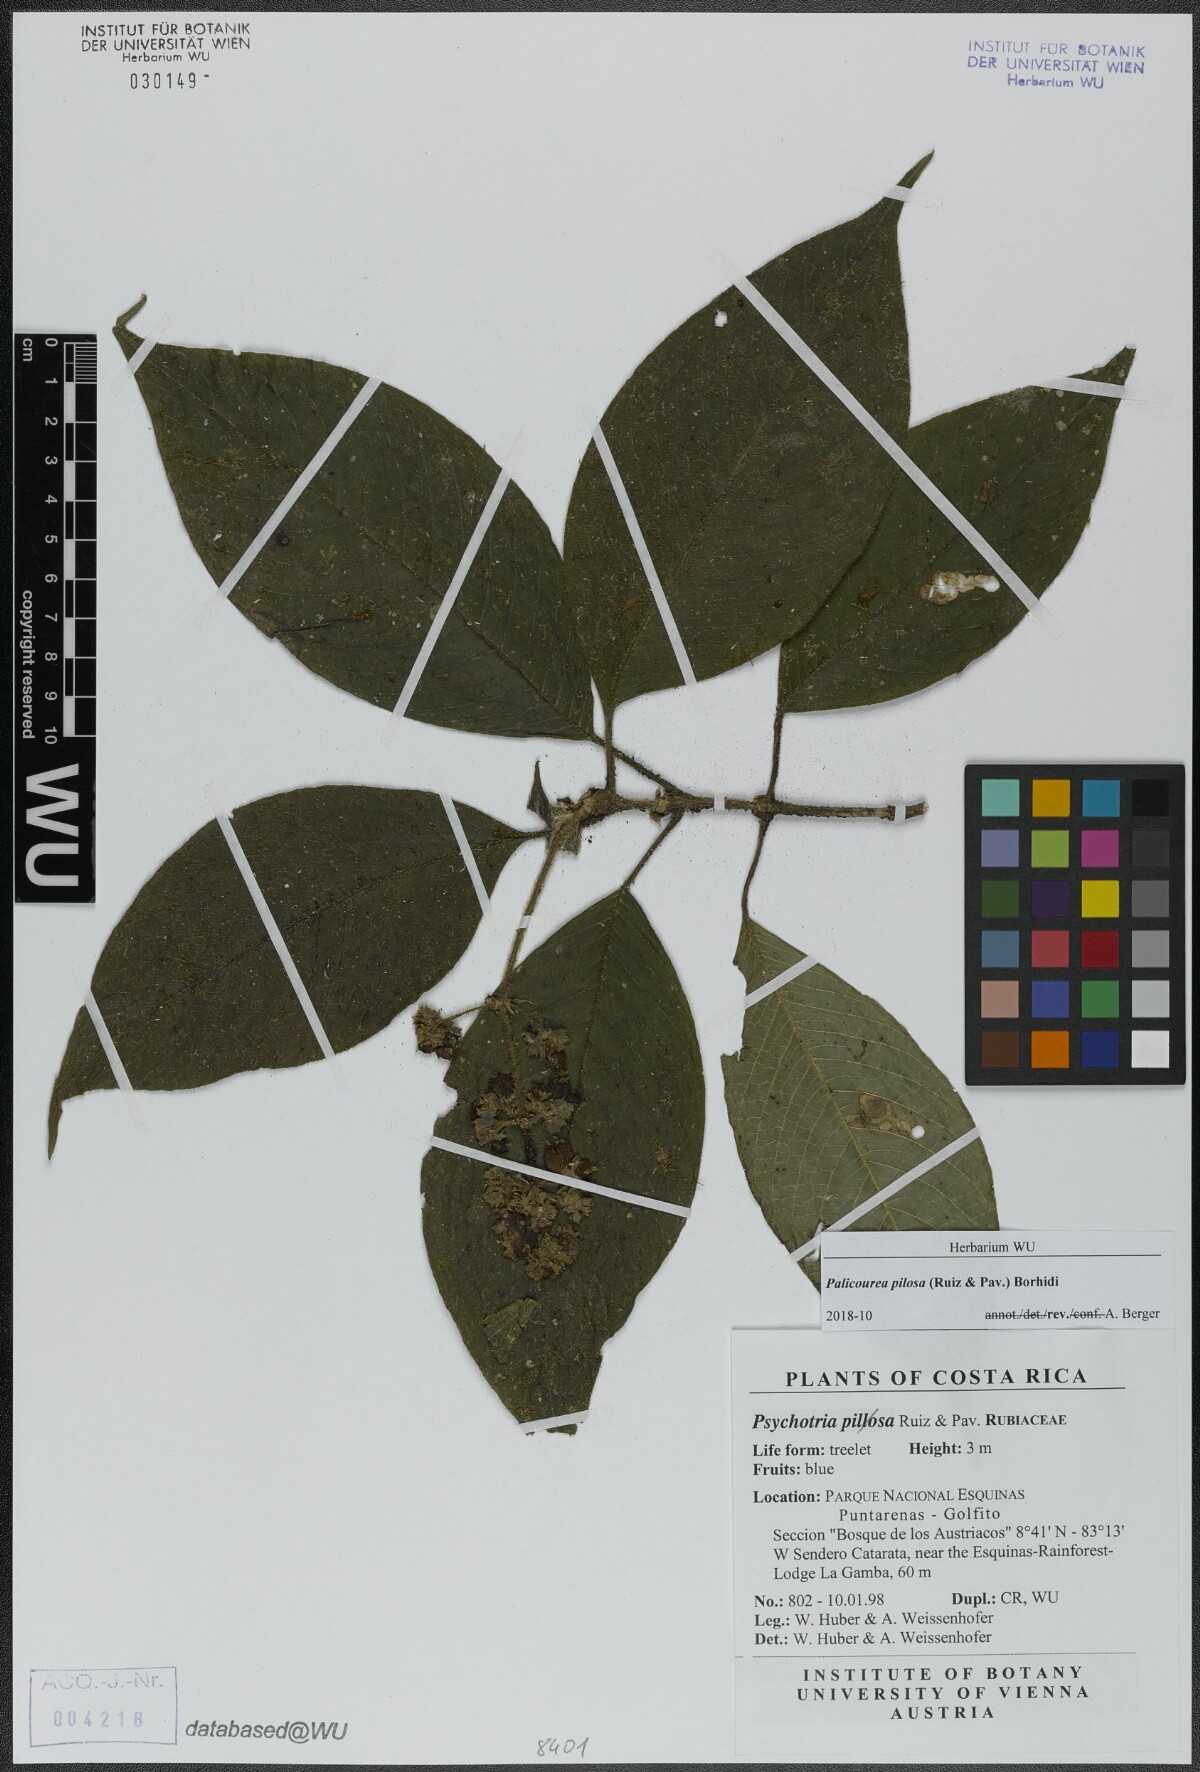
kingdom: Plantae
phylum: Tracheophyta
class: Magnoliopsida
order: Gentianales
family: Rubiaceae
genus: Palicourea
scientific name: Palicourea pilosa
